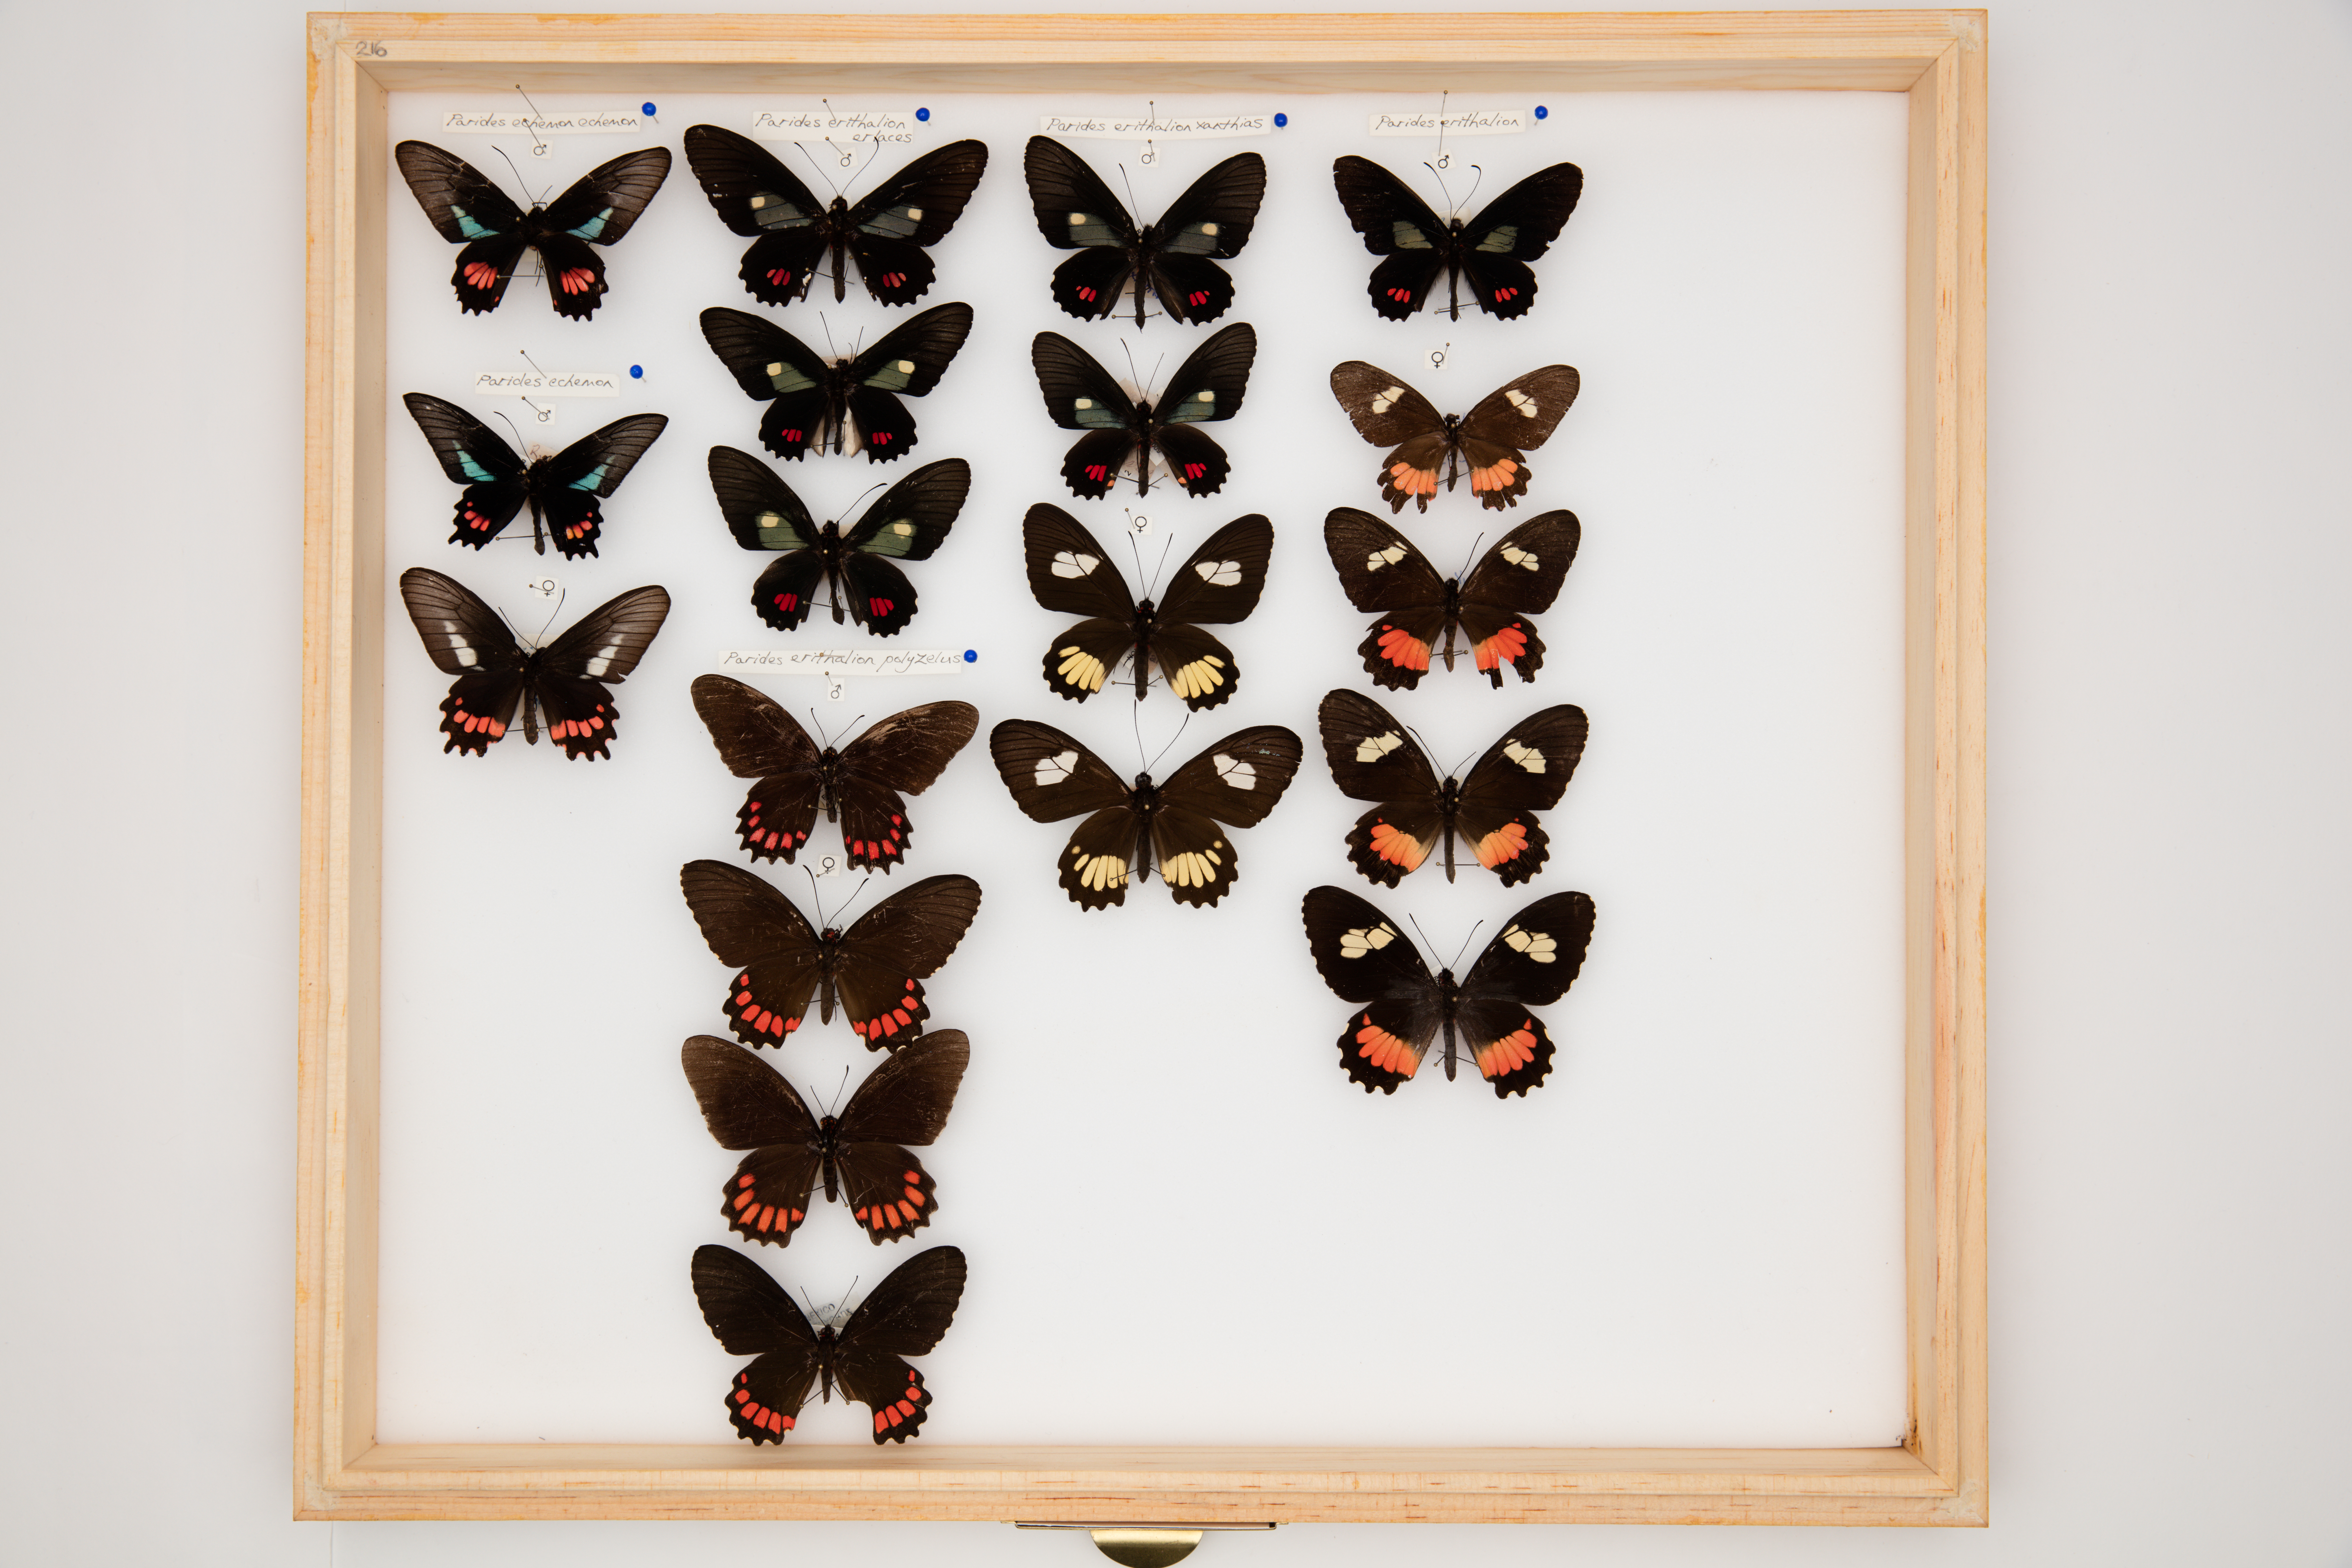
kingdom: Animalia
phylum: Arthropoda
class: Insecta
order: Lepidoptera
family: Papilionidae
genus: Parides
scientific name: Parides erithalion
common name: Variable cattleheart
